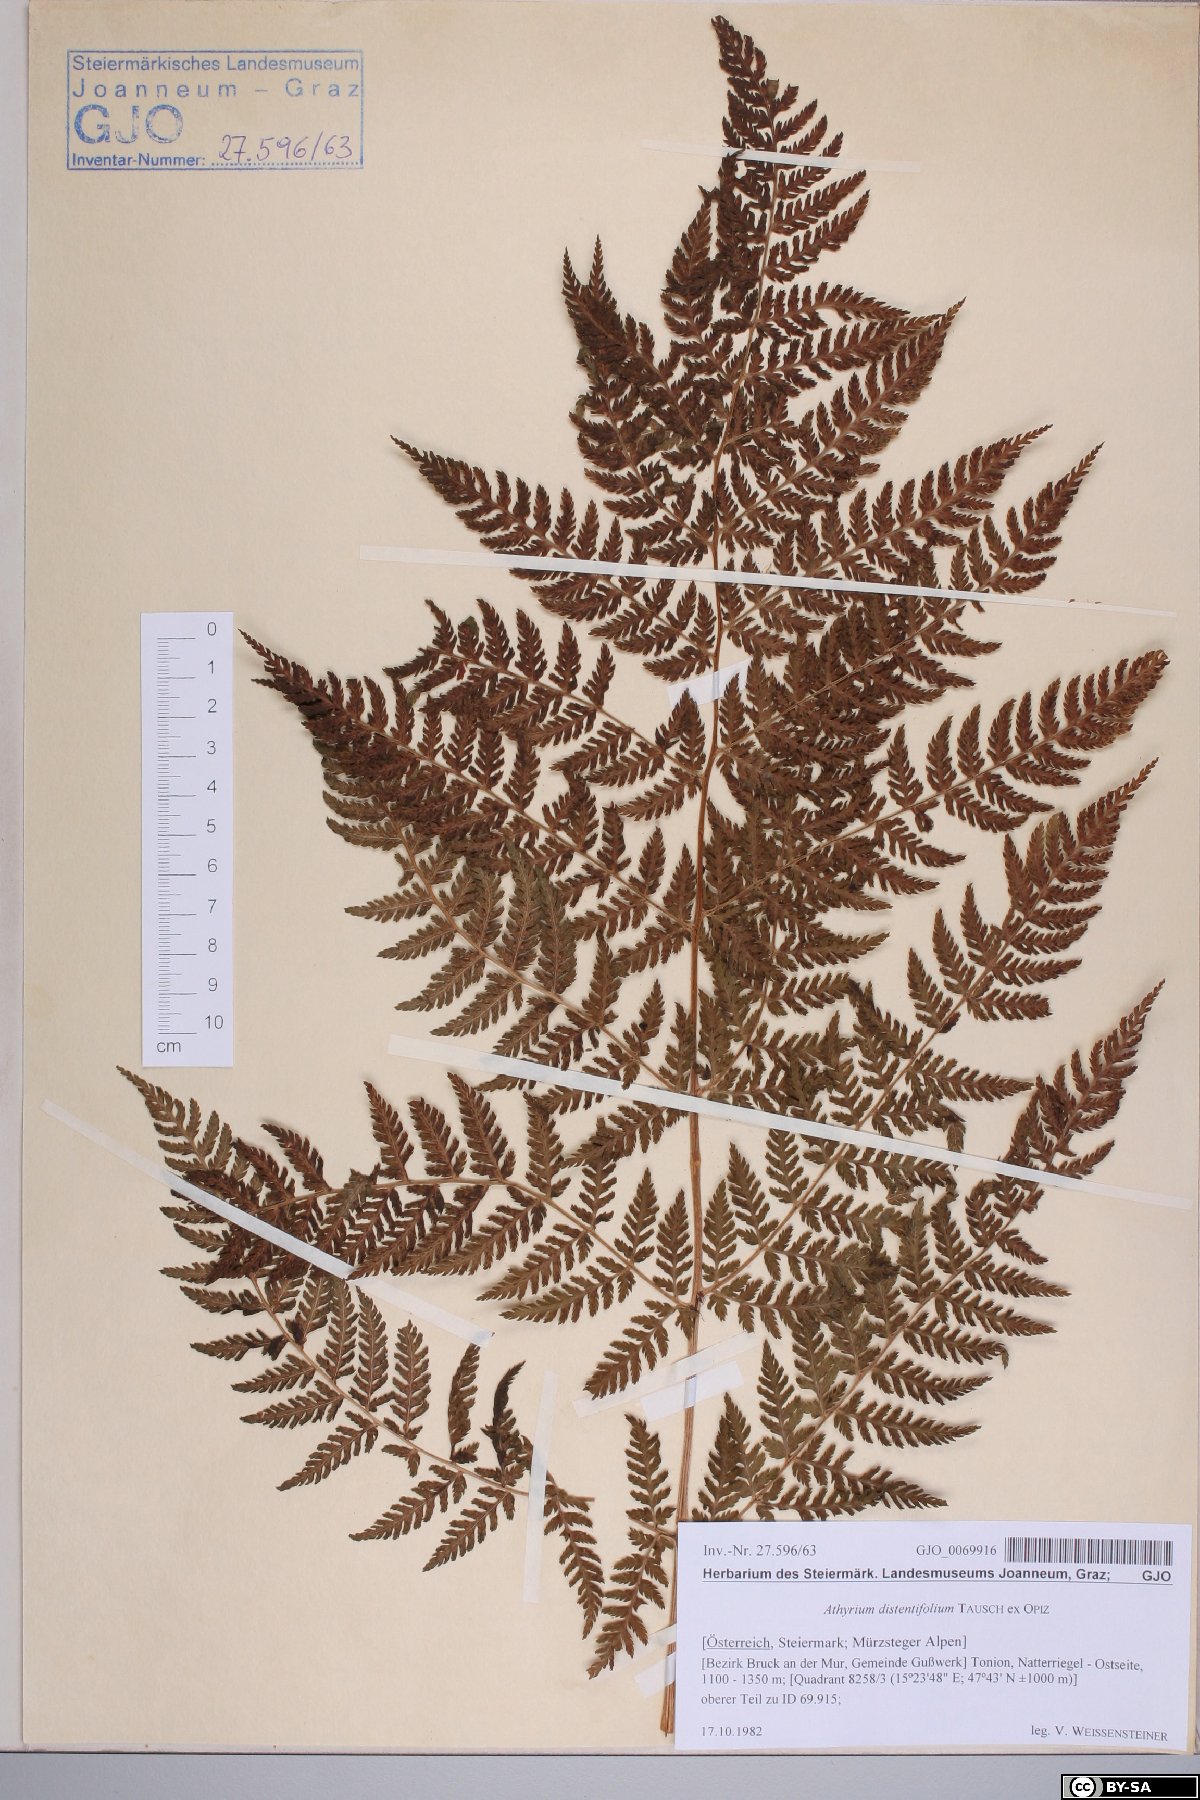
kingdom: Plantae
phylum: Tracheophyta
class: Polypodiopsida
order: Polypodiales
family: Athyriaceae
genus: Pseudathyrium
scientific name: Pseudathyrium alpestre
